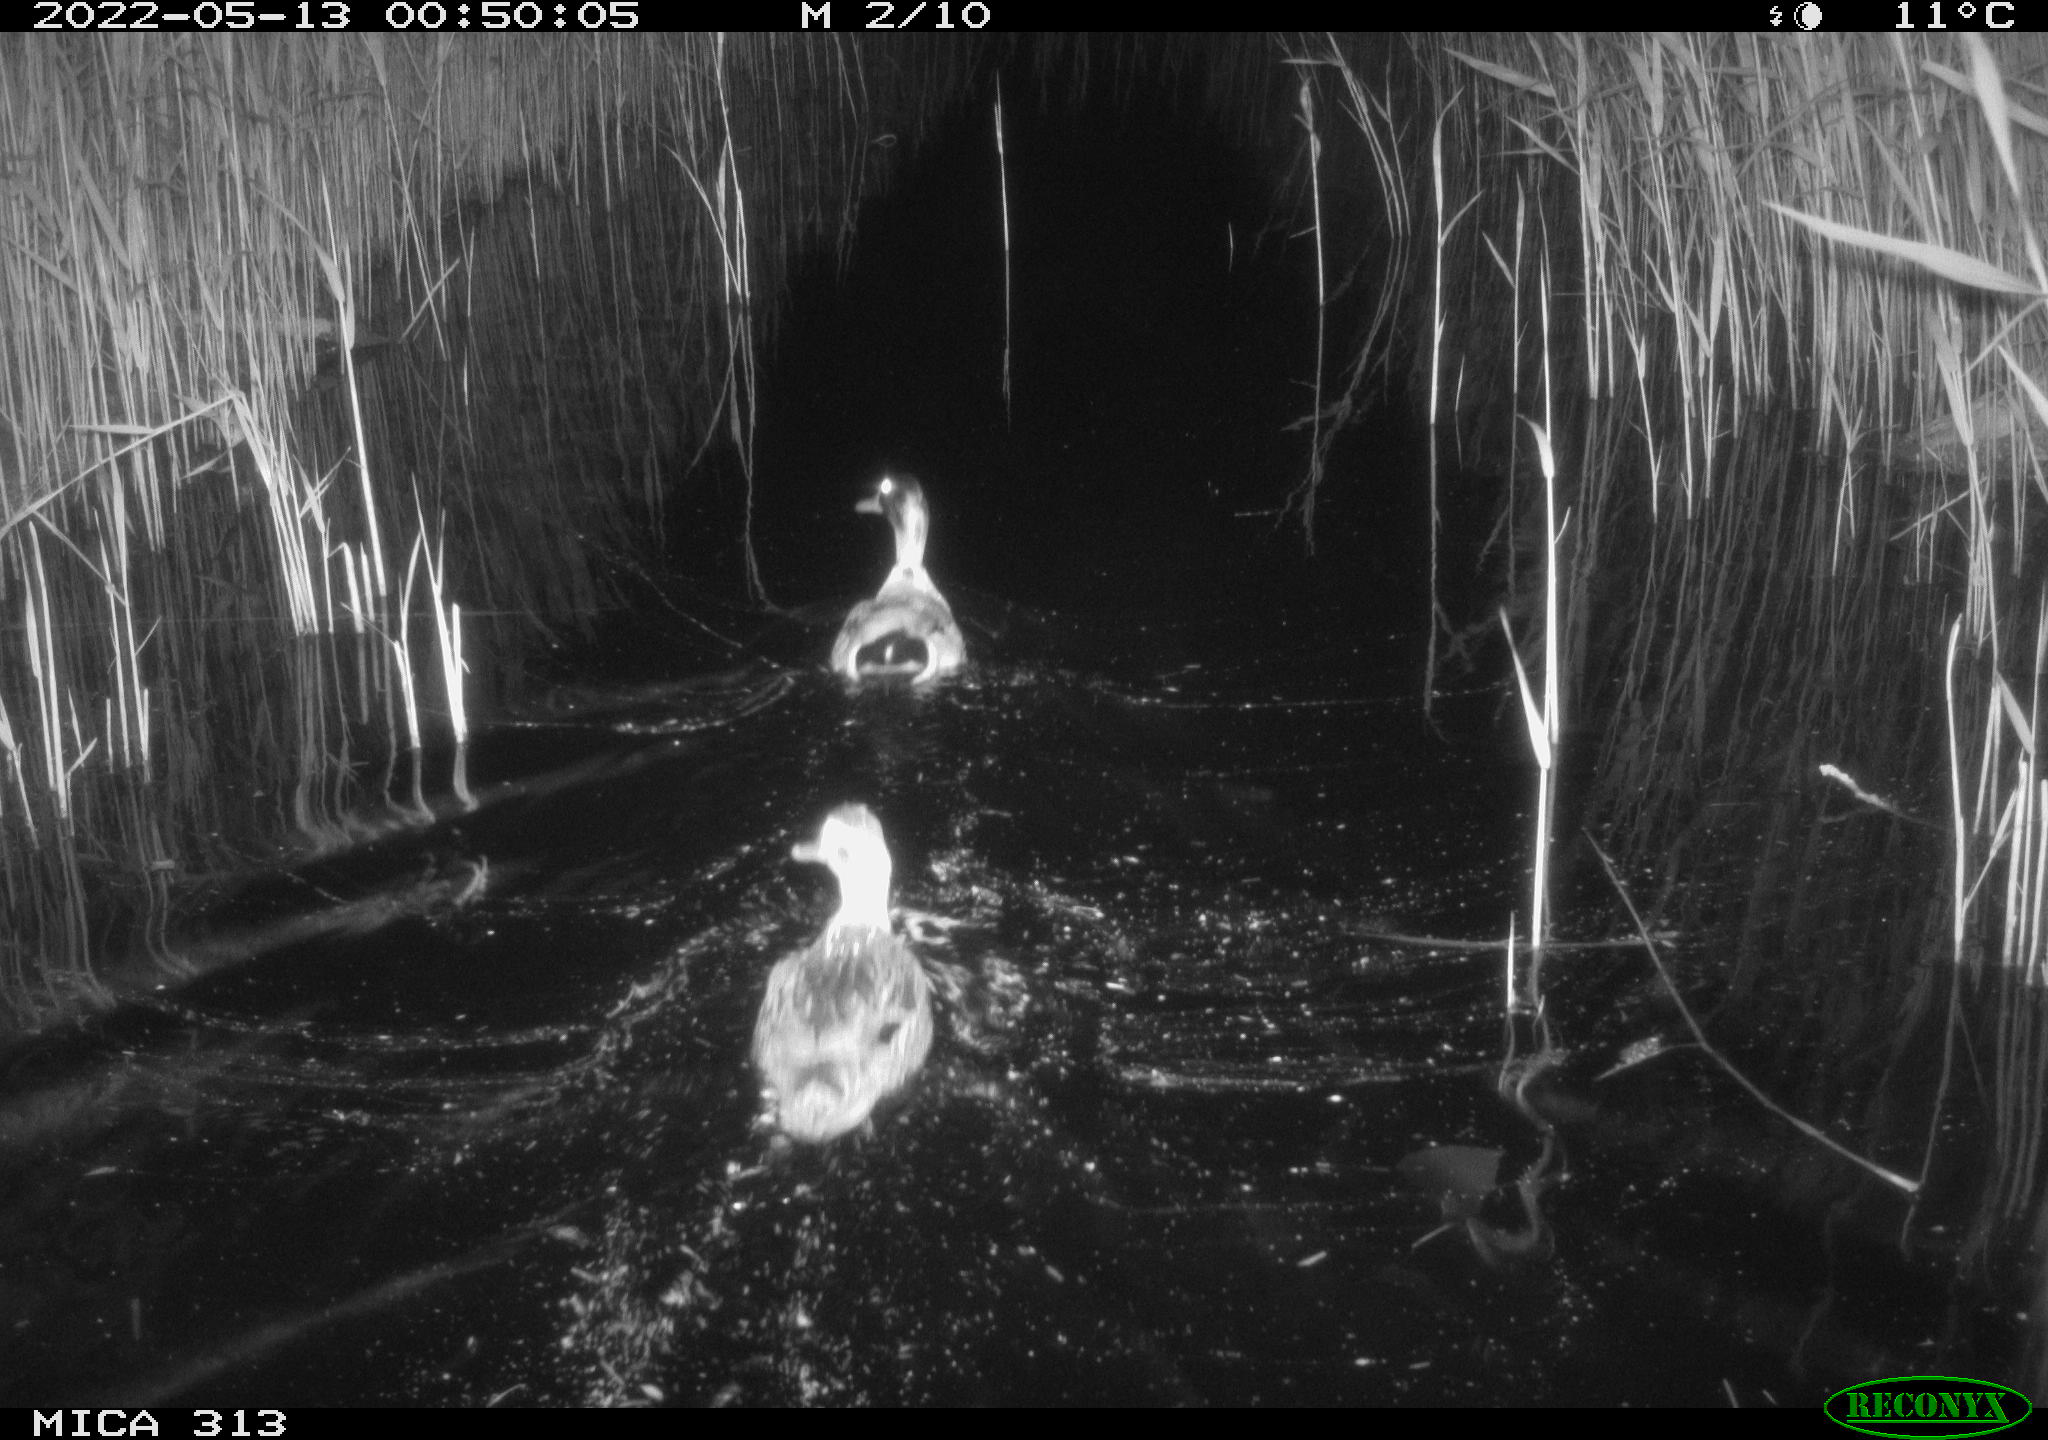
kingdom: Animalia
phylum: Chordata
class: Aves
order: Anseriformes
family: Anatidae
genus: Anas
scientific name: Anas platyrhynchos
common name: Mallard
